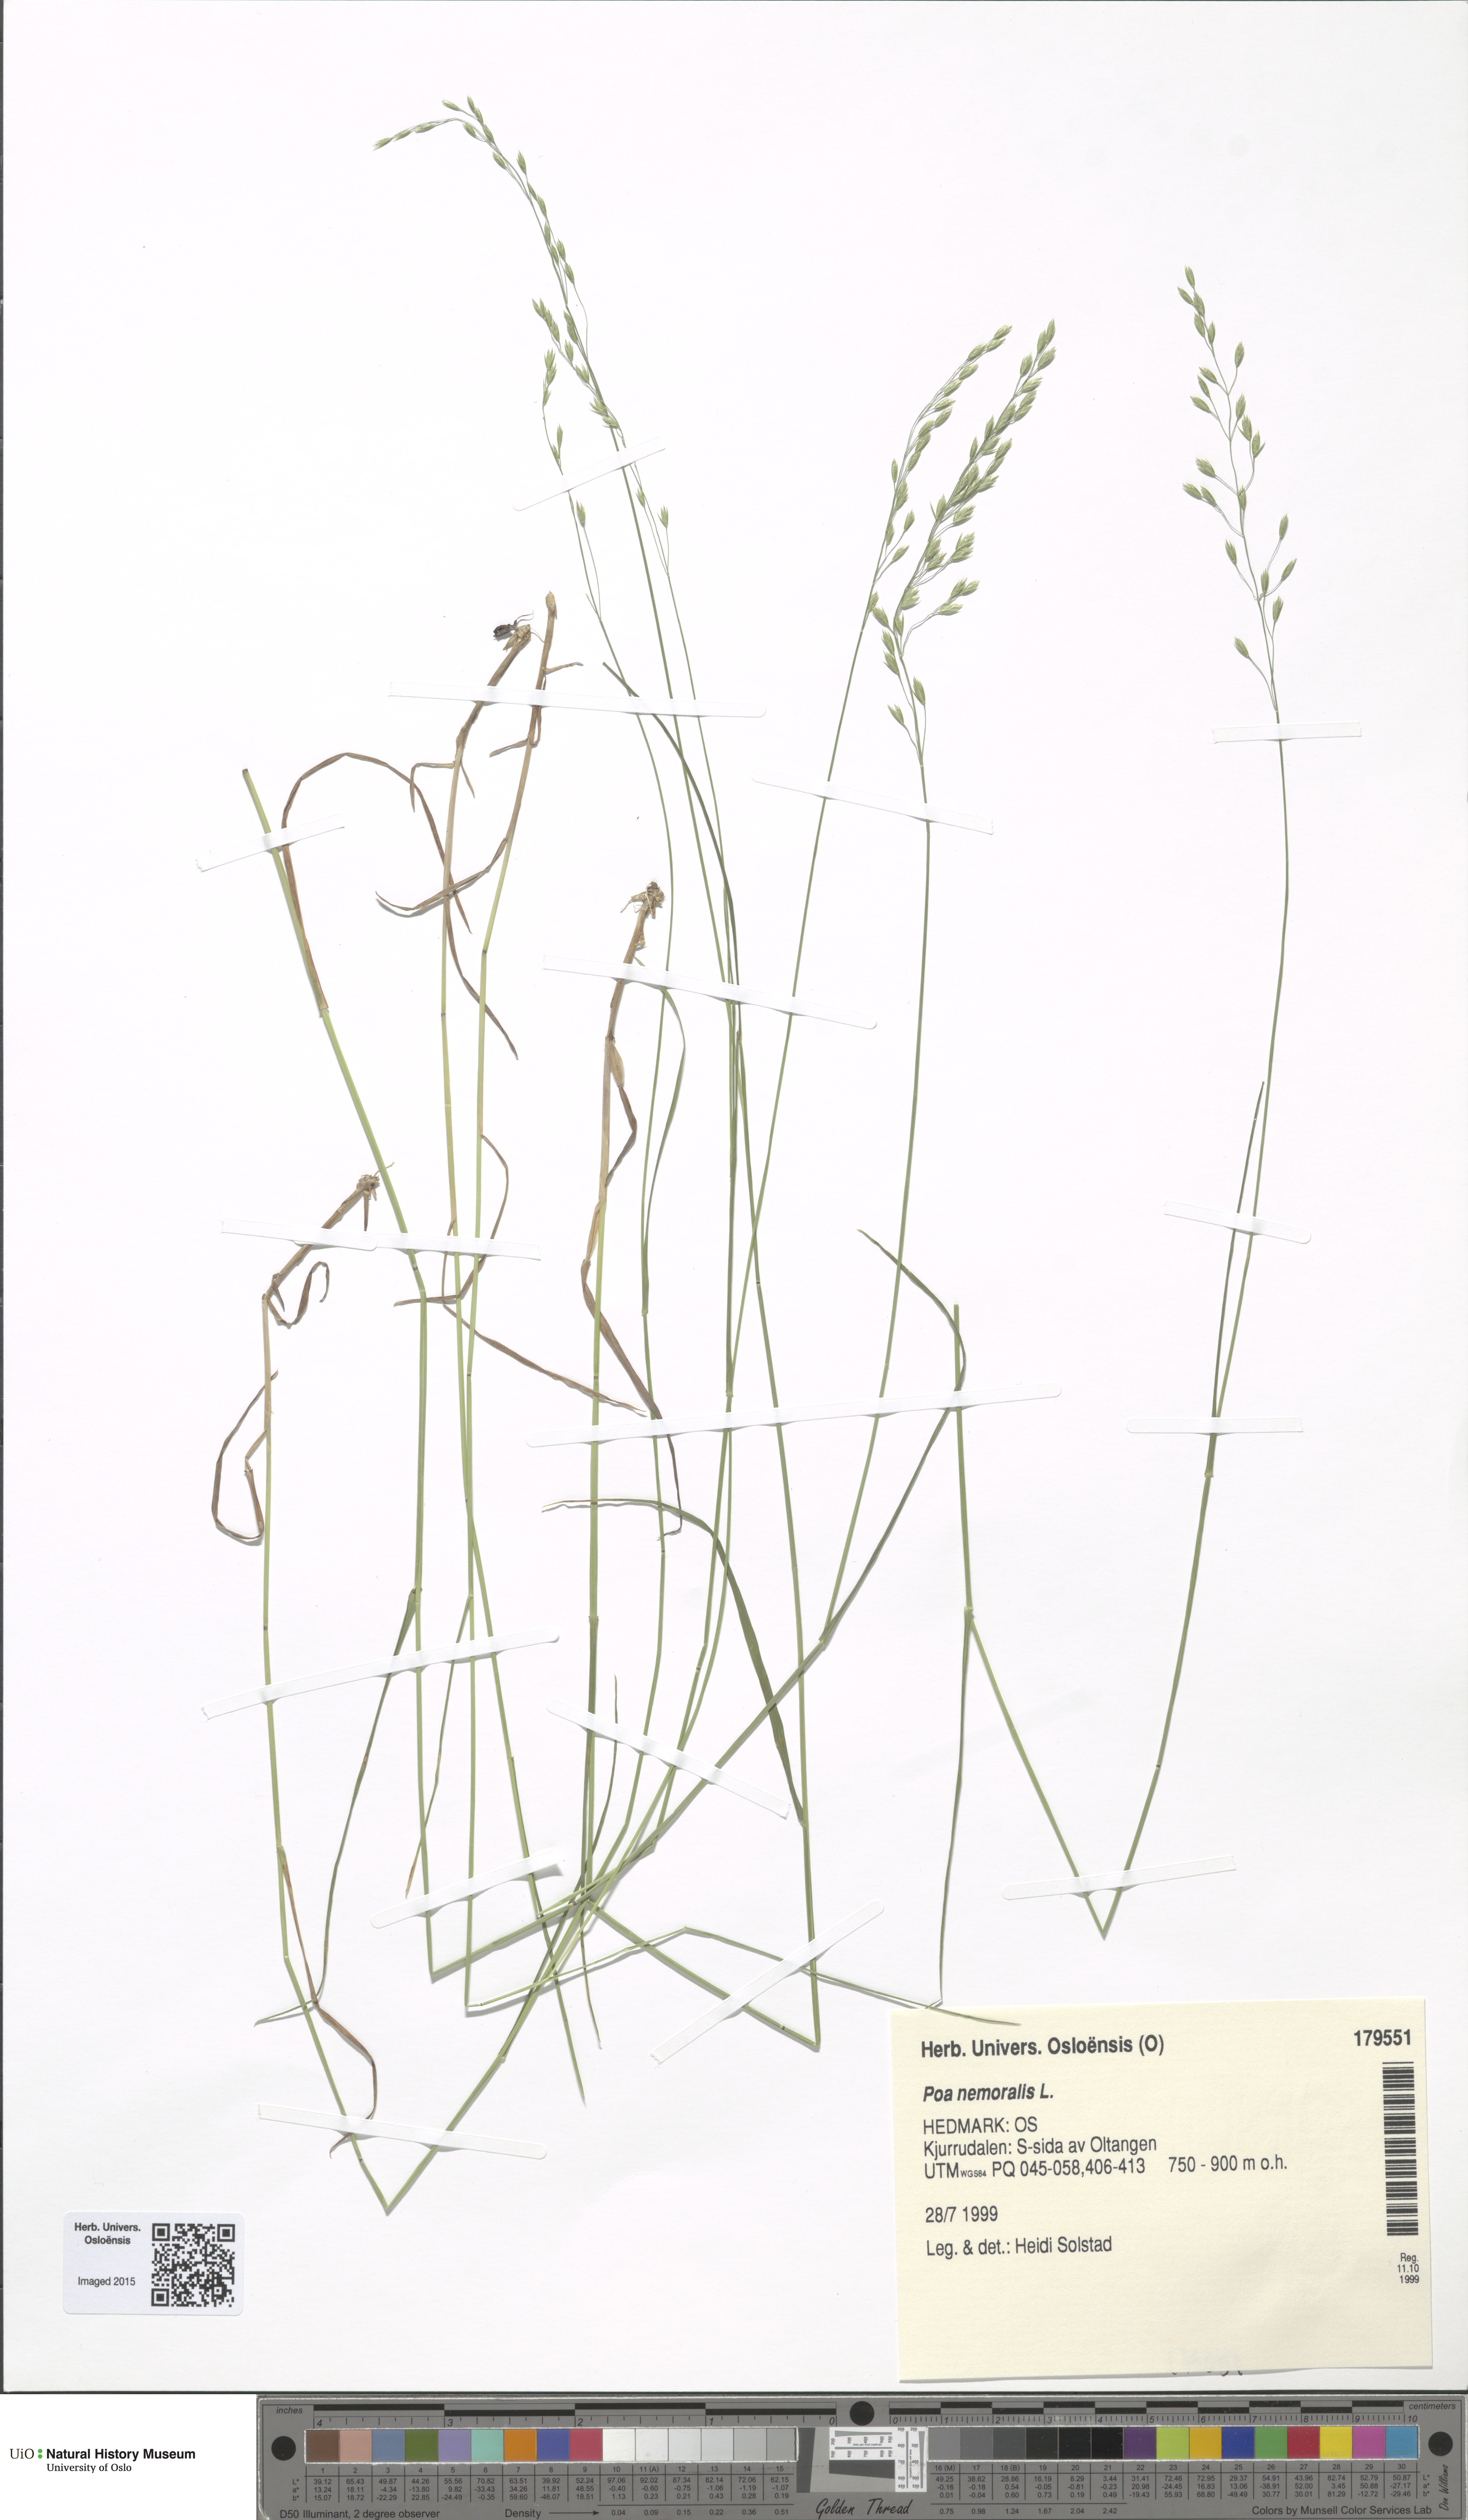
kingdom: Plantae
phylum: Tracheophyta
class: Liliopsida
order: Poales
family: Poaceae
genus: Poa
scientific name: Poa nemoralis
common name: Wood bluegrass
